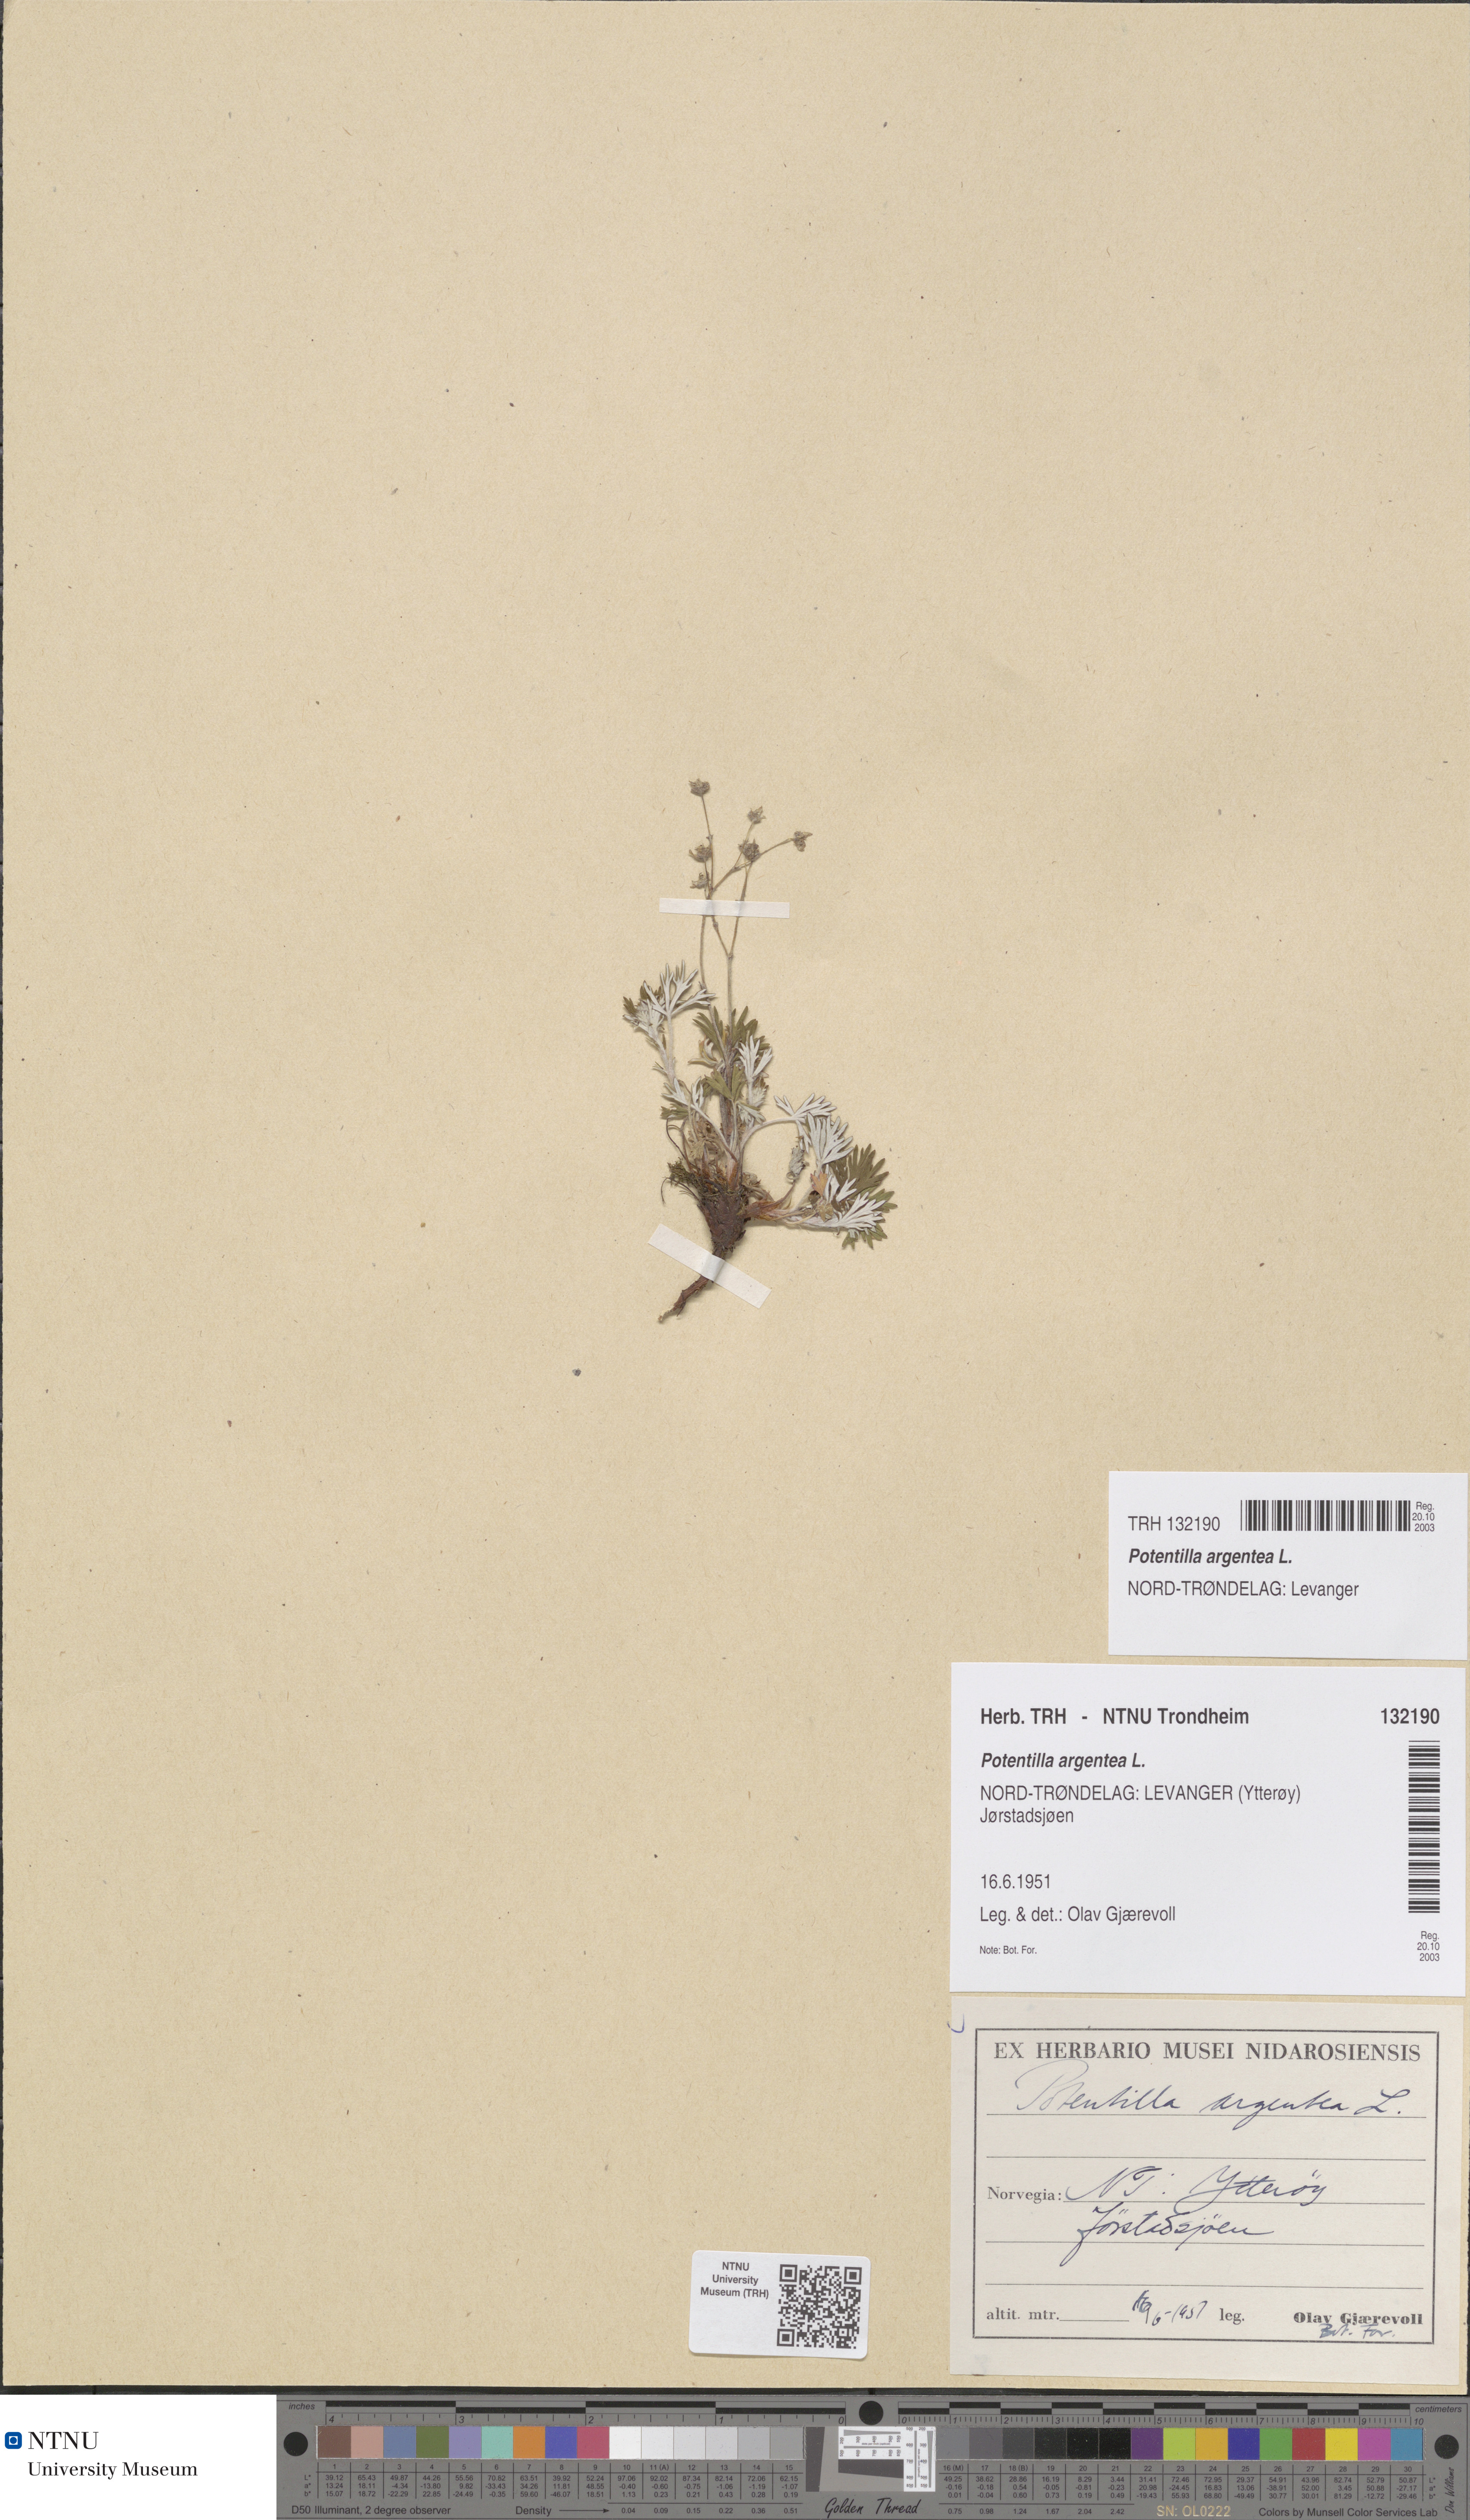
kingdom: Plantae
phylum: Tracheophyta
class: Magnoliopsida
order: Rosales
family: Rosaceae
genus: Potentilla
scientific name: Potentilla argentea
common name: Hoary cinquefoil
